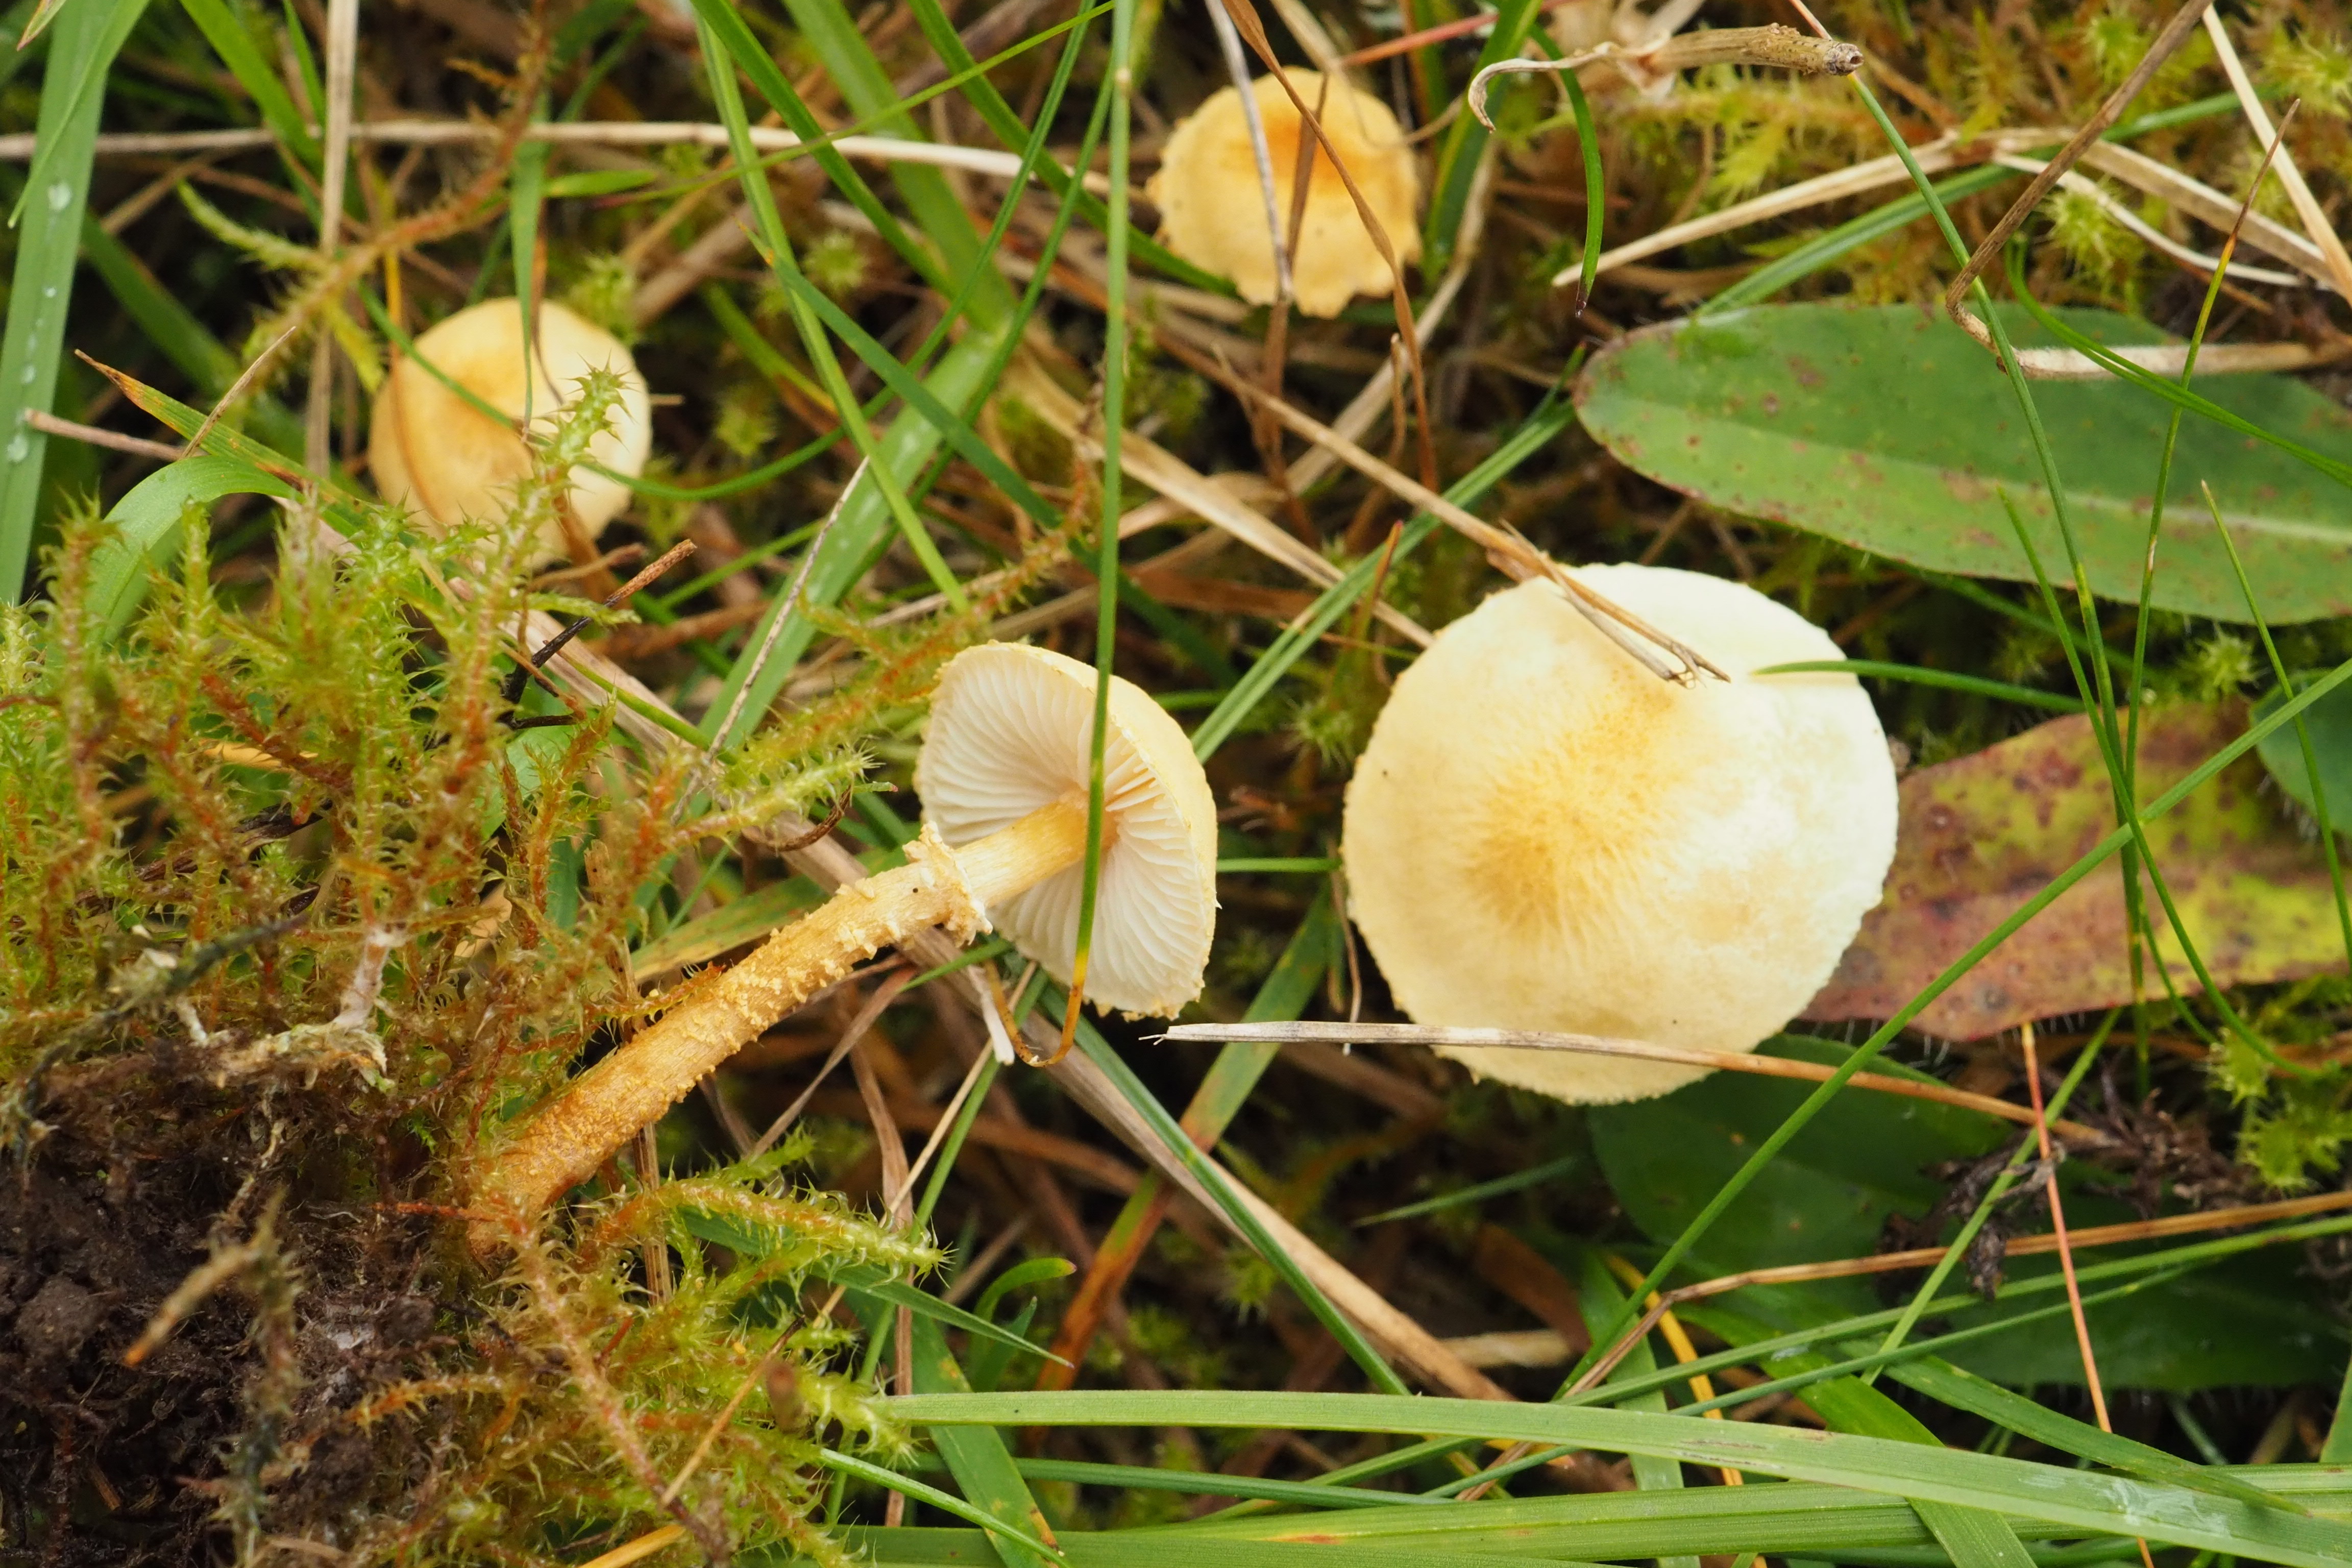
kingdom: Fungi
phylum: Basidiomycota
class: Agaricomycetes
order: Agaricales
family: Tricholomataceae
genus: Cystoderma
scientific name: Cystoderma amianthinum
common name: Earthy powdercap
